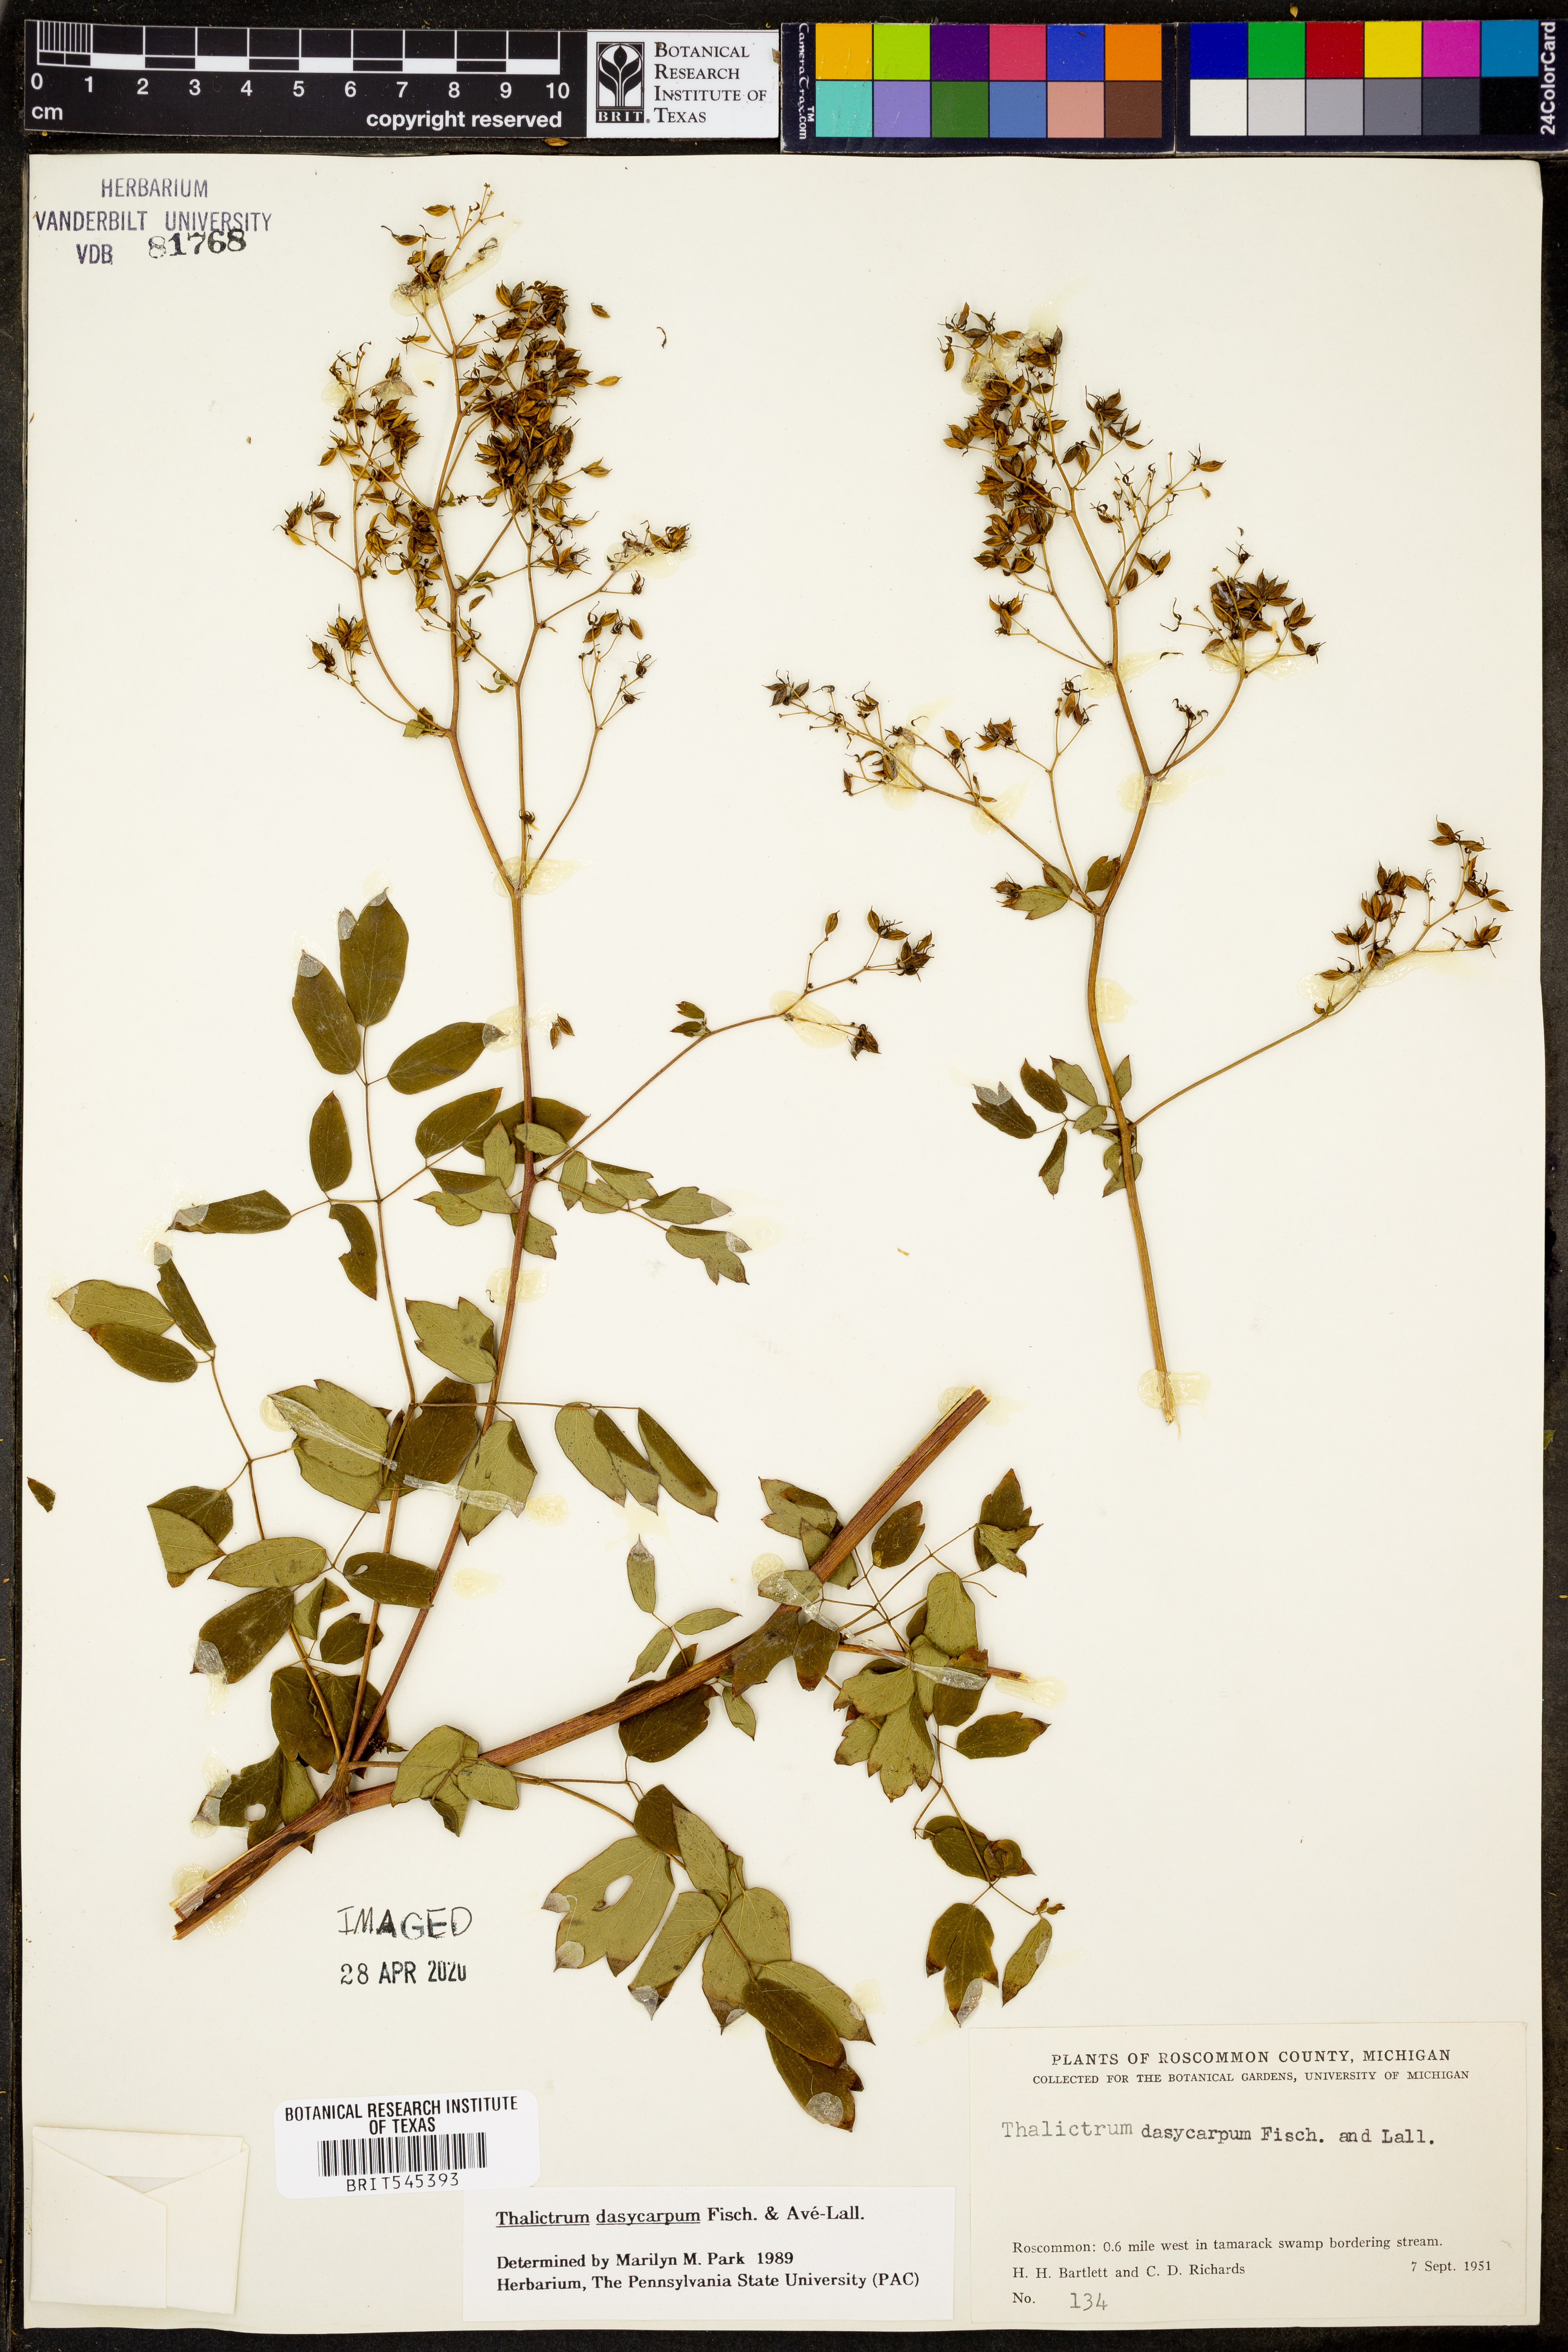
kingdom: Plantae
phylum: Tracheophyta
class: Magnoliopsida
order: Ranunculales
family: Ranunculaceae
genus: Thalictrum
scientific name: Thalictrum dasycarpum
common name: Purple meadow-rue
